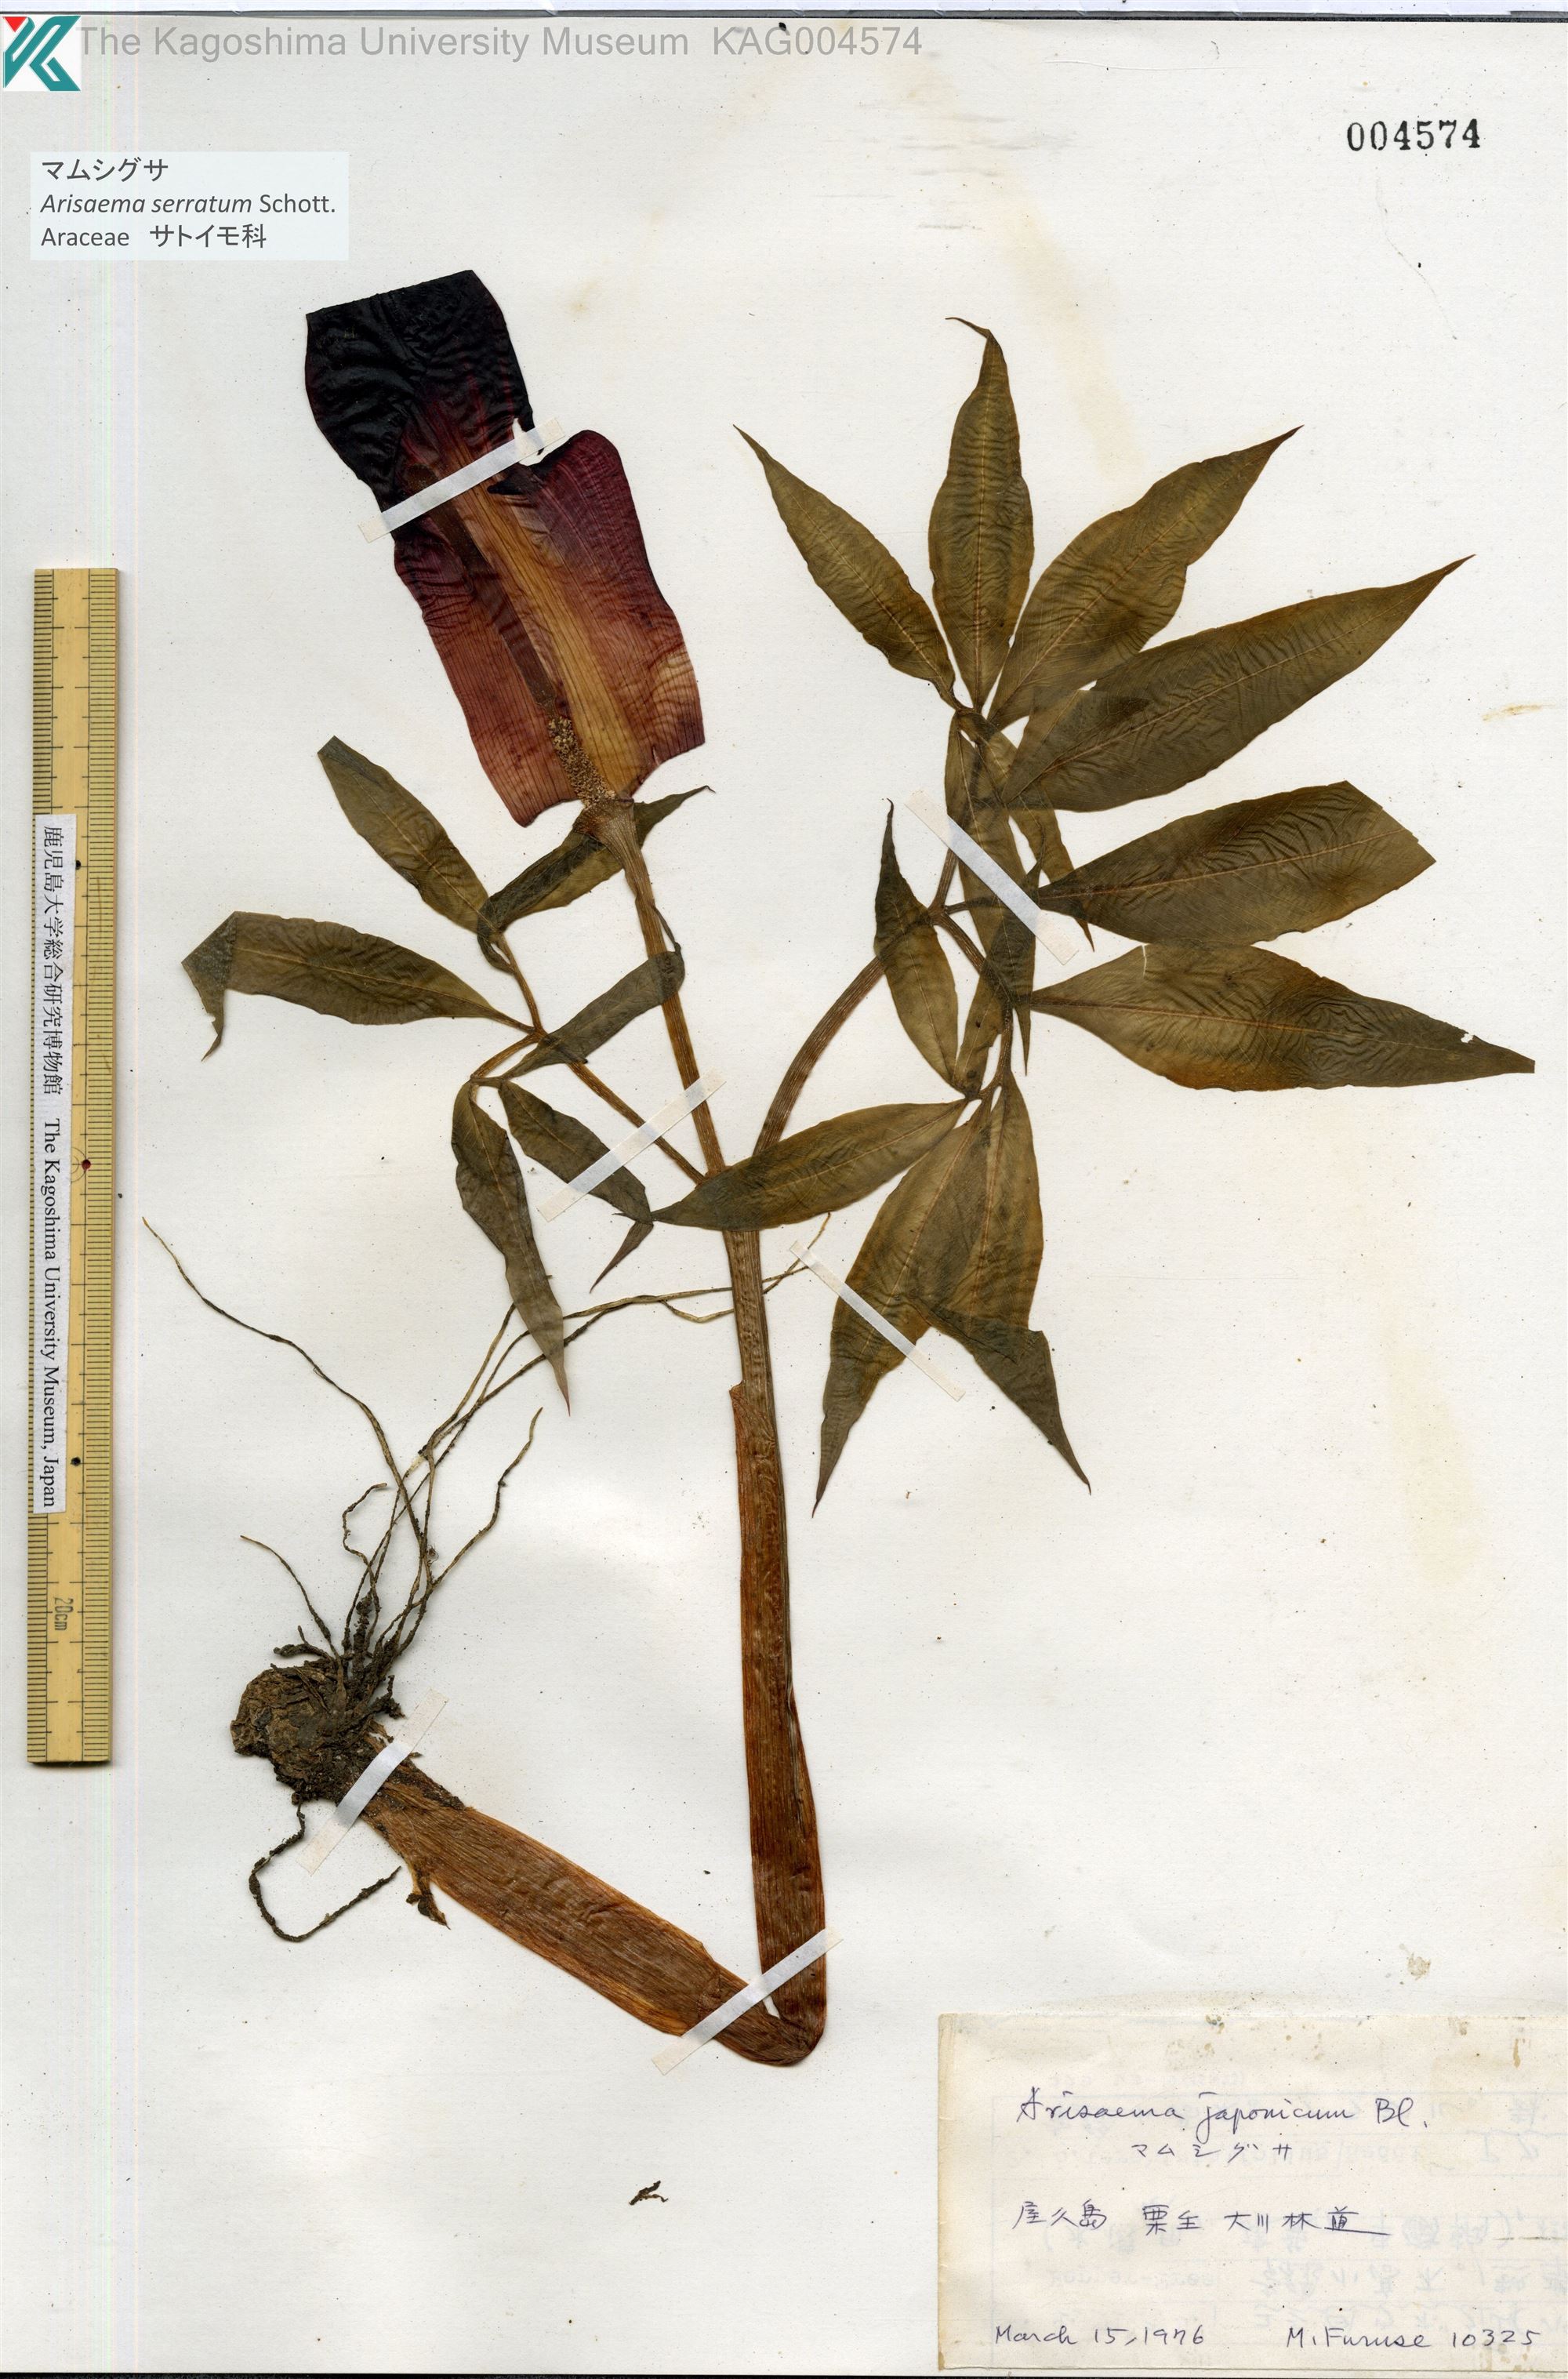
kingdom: Plantae
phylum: Tracheophyta
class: Liliopsida
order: Alismatales
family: Araceae
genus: Arisaema
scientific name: Arisaema serratum
